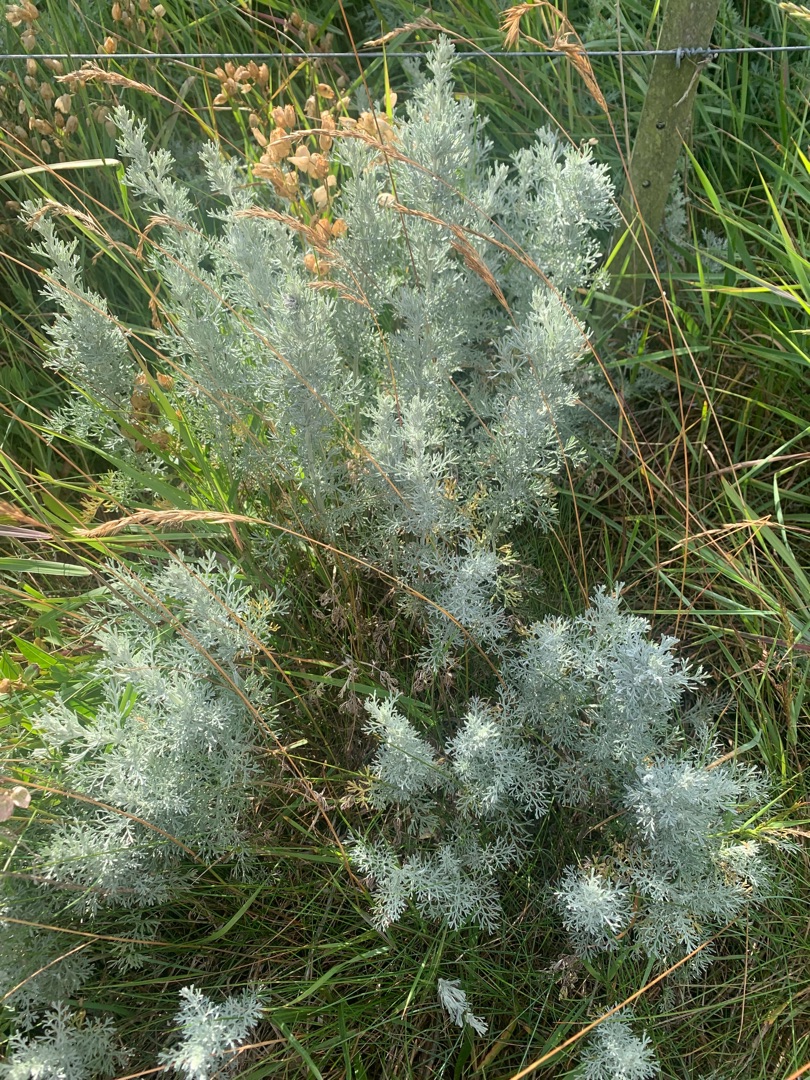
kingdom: Plantae
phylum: Tracheophyta
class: Magnoliopsida
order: Asterales
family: Asteraceae
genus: Artemisia
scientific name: Artemisia maritima
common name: Strandmalurt
